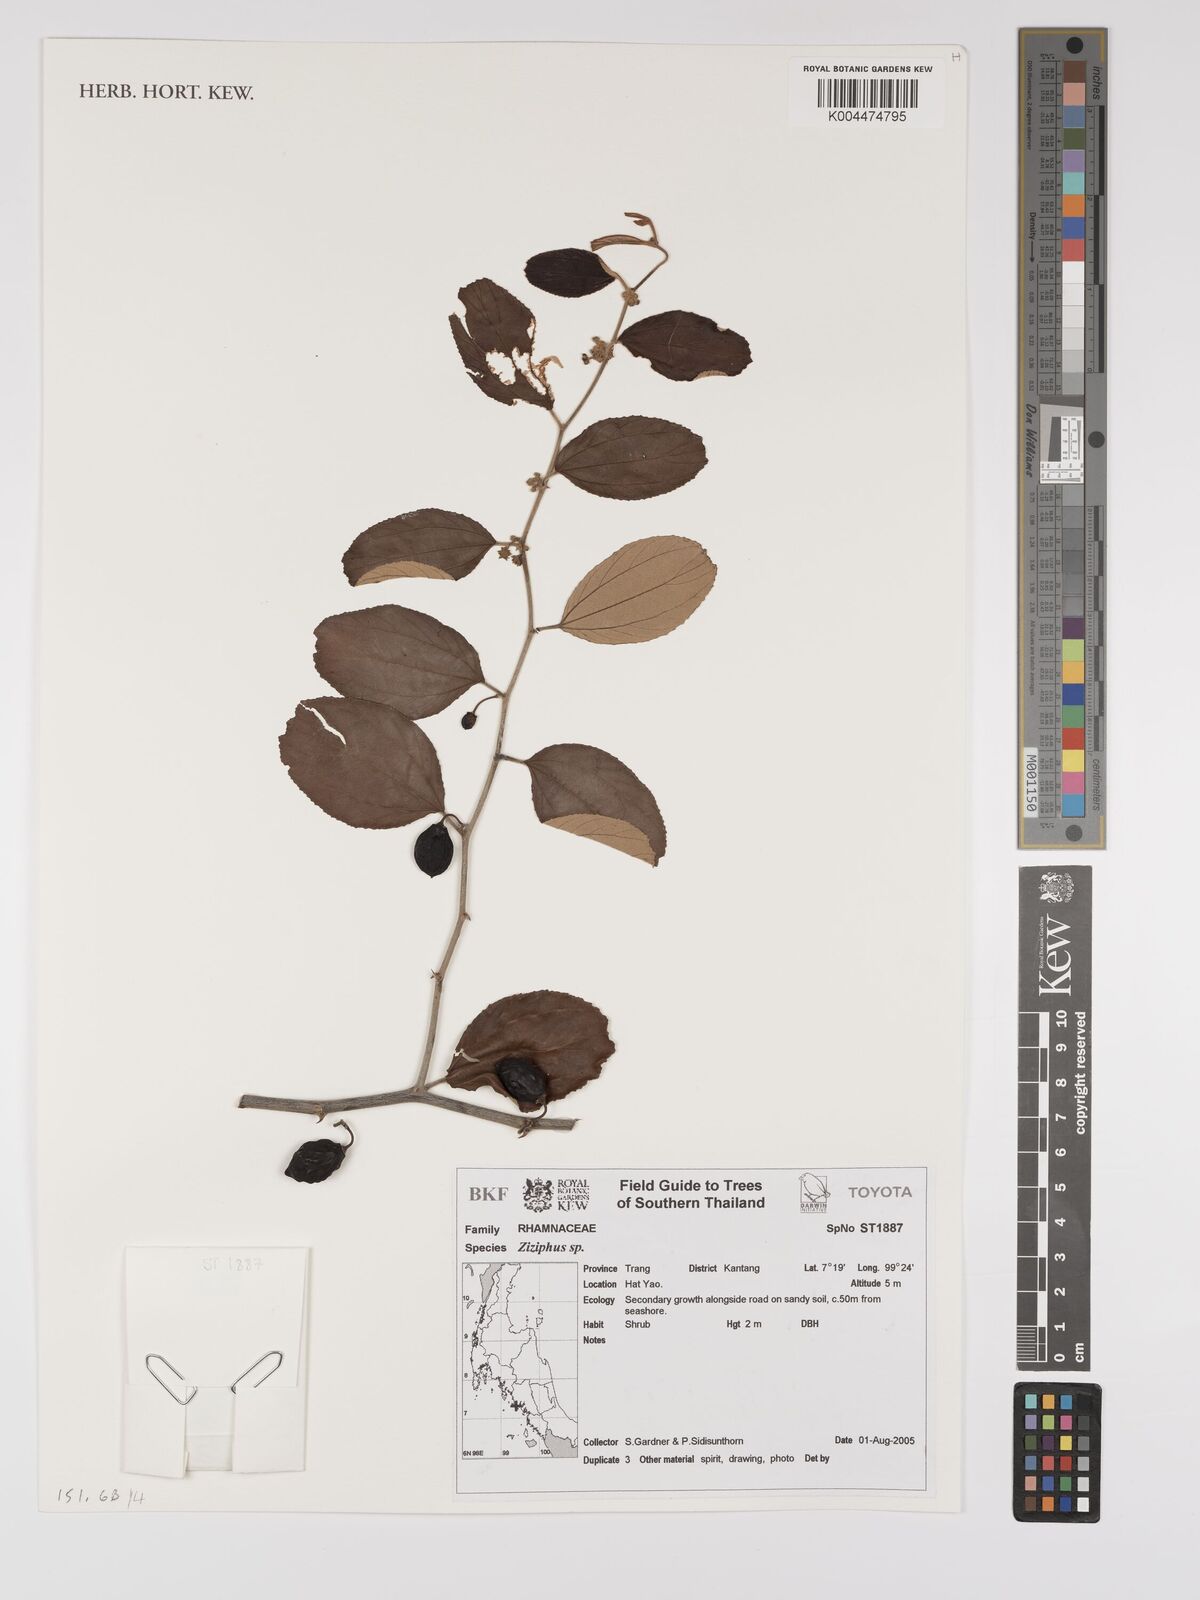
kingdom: Plantae
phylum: Tracheophyta
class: Magnoliopsida
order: Rosales
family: Rhamnaceae
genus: Ziziphus
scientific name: Ziziphus mauritiana
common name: Indian jujube
